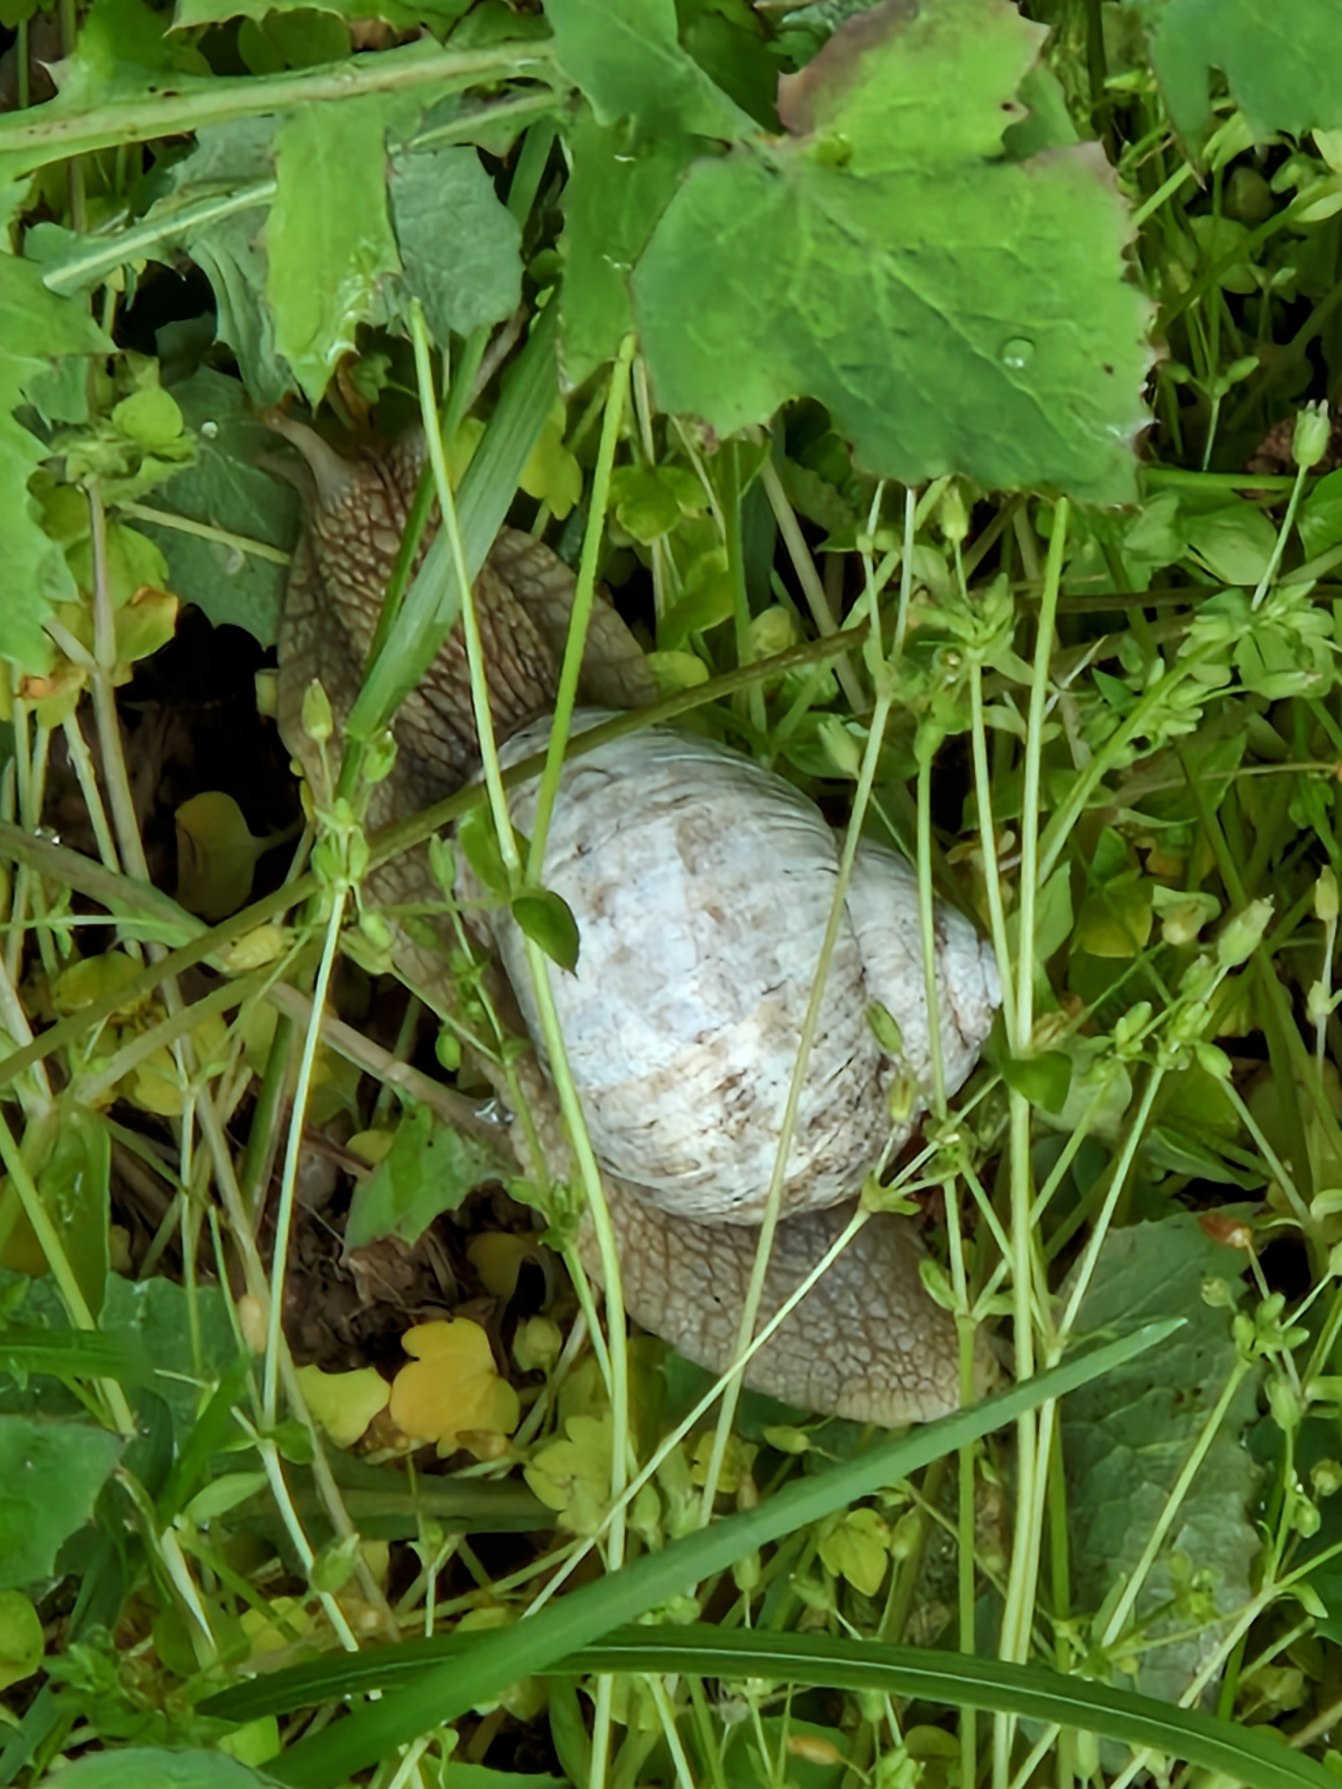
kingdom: Animalia
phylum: Mollusca
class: Gastropoda
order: Stylommatophora
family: Helicidae
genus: Helix
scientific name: Helix pomatia
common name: Vinbjergsnegl
